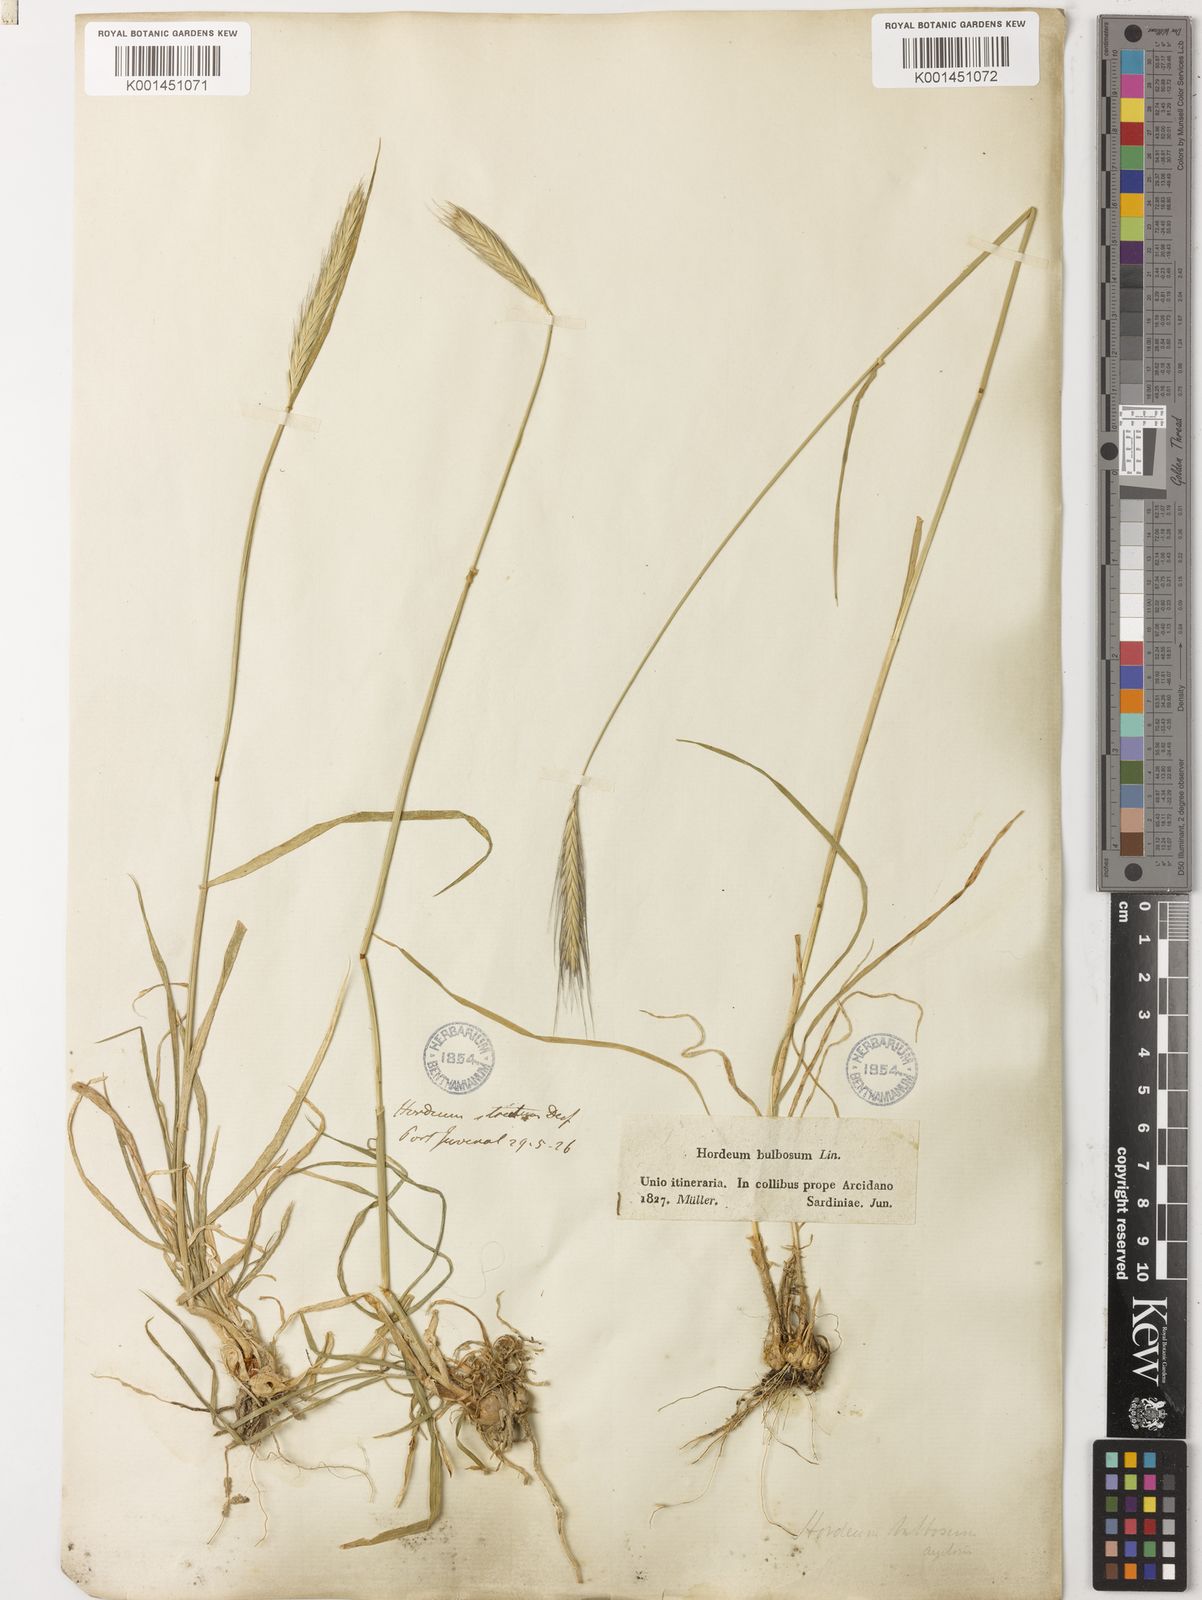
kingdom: Plantae
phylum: Tracheophyta
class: Liliopsida
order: Poales
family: Poaceae
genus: Hordeum
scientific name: Hordeum bulbosum
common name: Bulbous barley
